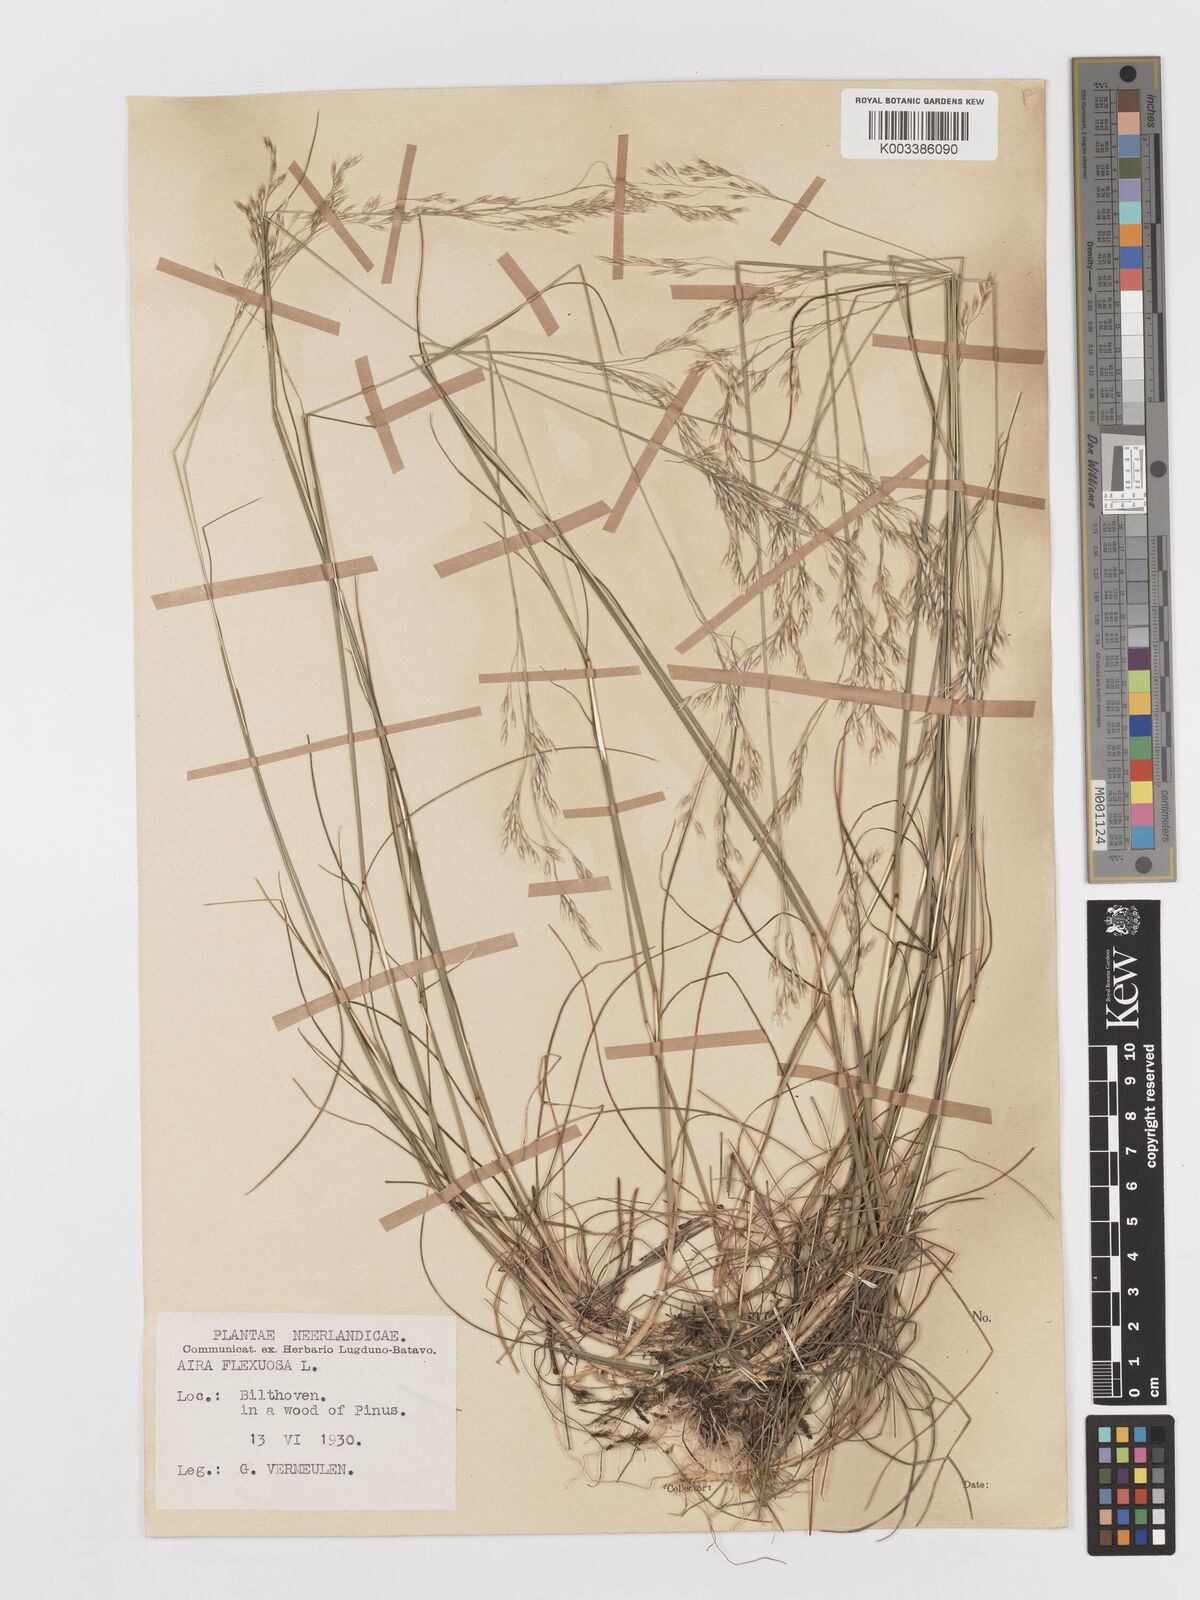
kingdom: Plantae
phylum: Tracheophyta
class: Liliopsida
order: Poales
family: Poaceae
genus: Avenella
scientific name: Avenella flexuosa
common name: Wavy hairgrass
